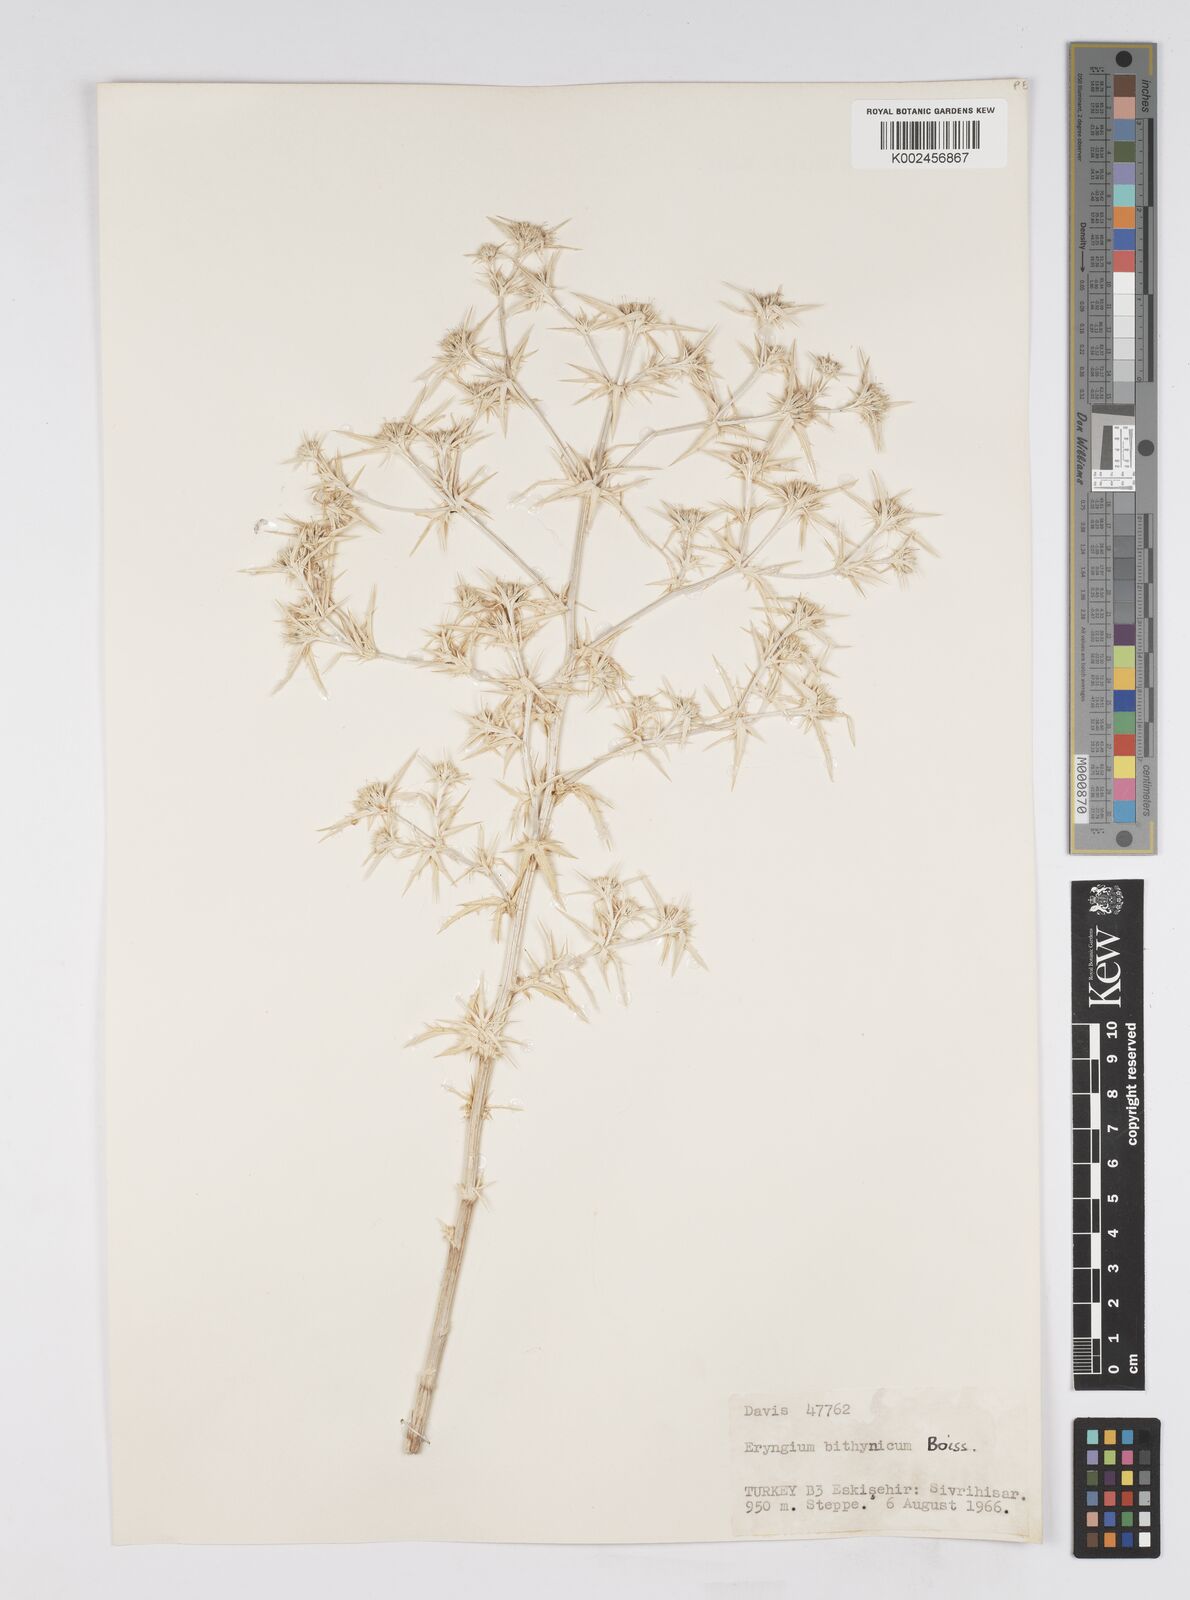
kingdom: Plantae
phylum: Tracheophyta
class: Magnoliopsida
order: Apiales
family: Apiaceae
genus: Eryngium
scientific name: Eryngium bithynicum
